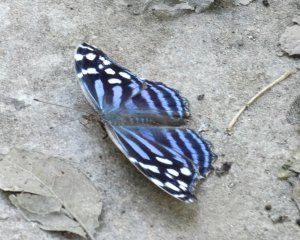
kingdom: Animalia
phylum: Arthropoda
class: Insecta
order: Lepidoptera
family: Nymphalidae
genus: Myscelia
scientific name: Myscelia ethusa
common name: Mexican Bluewing
